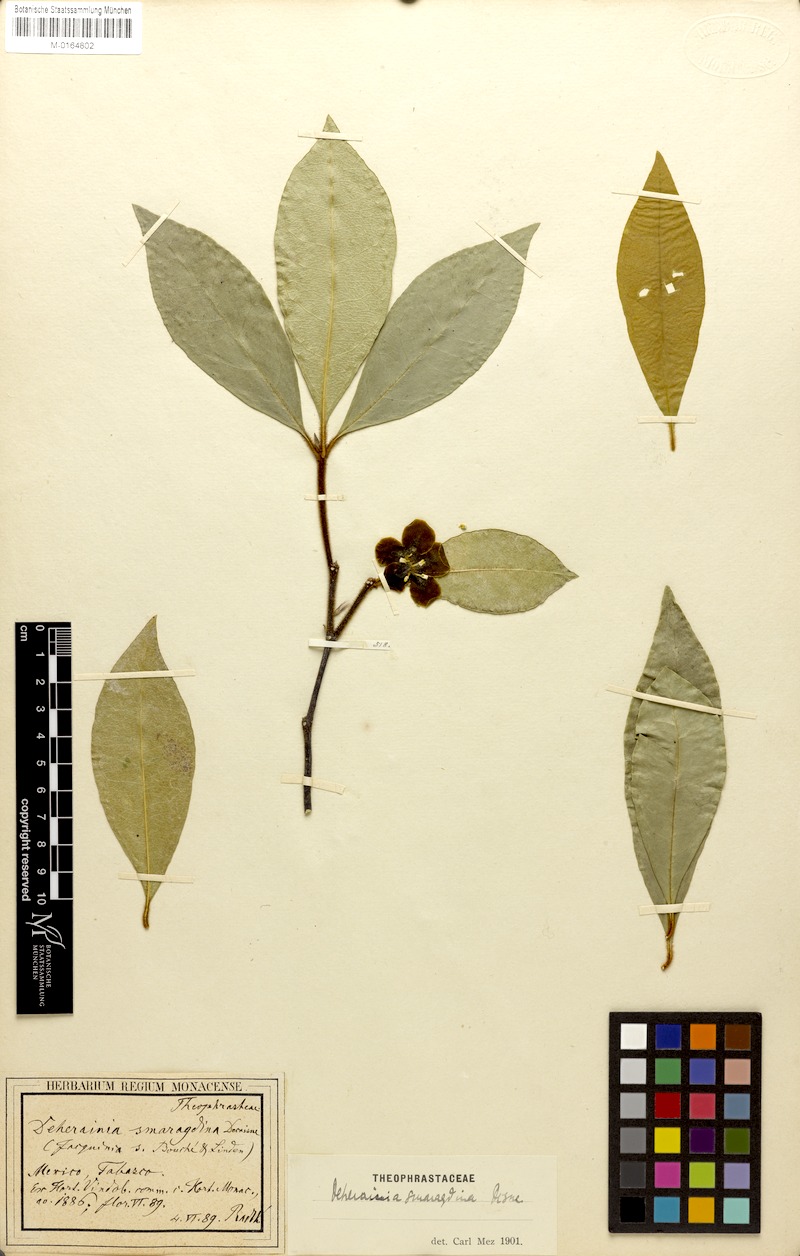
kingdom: Plantae
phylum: Tracheophyta
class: Magnoliopsida
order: Ericales
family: Primulaceae
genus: Deherainia
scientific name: Deherainia smaragdina
